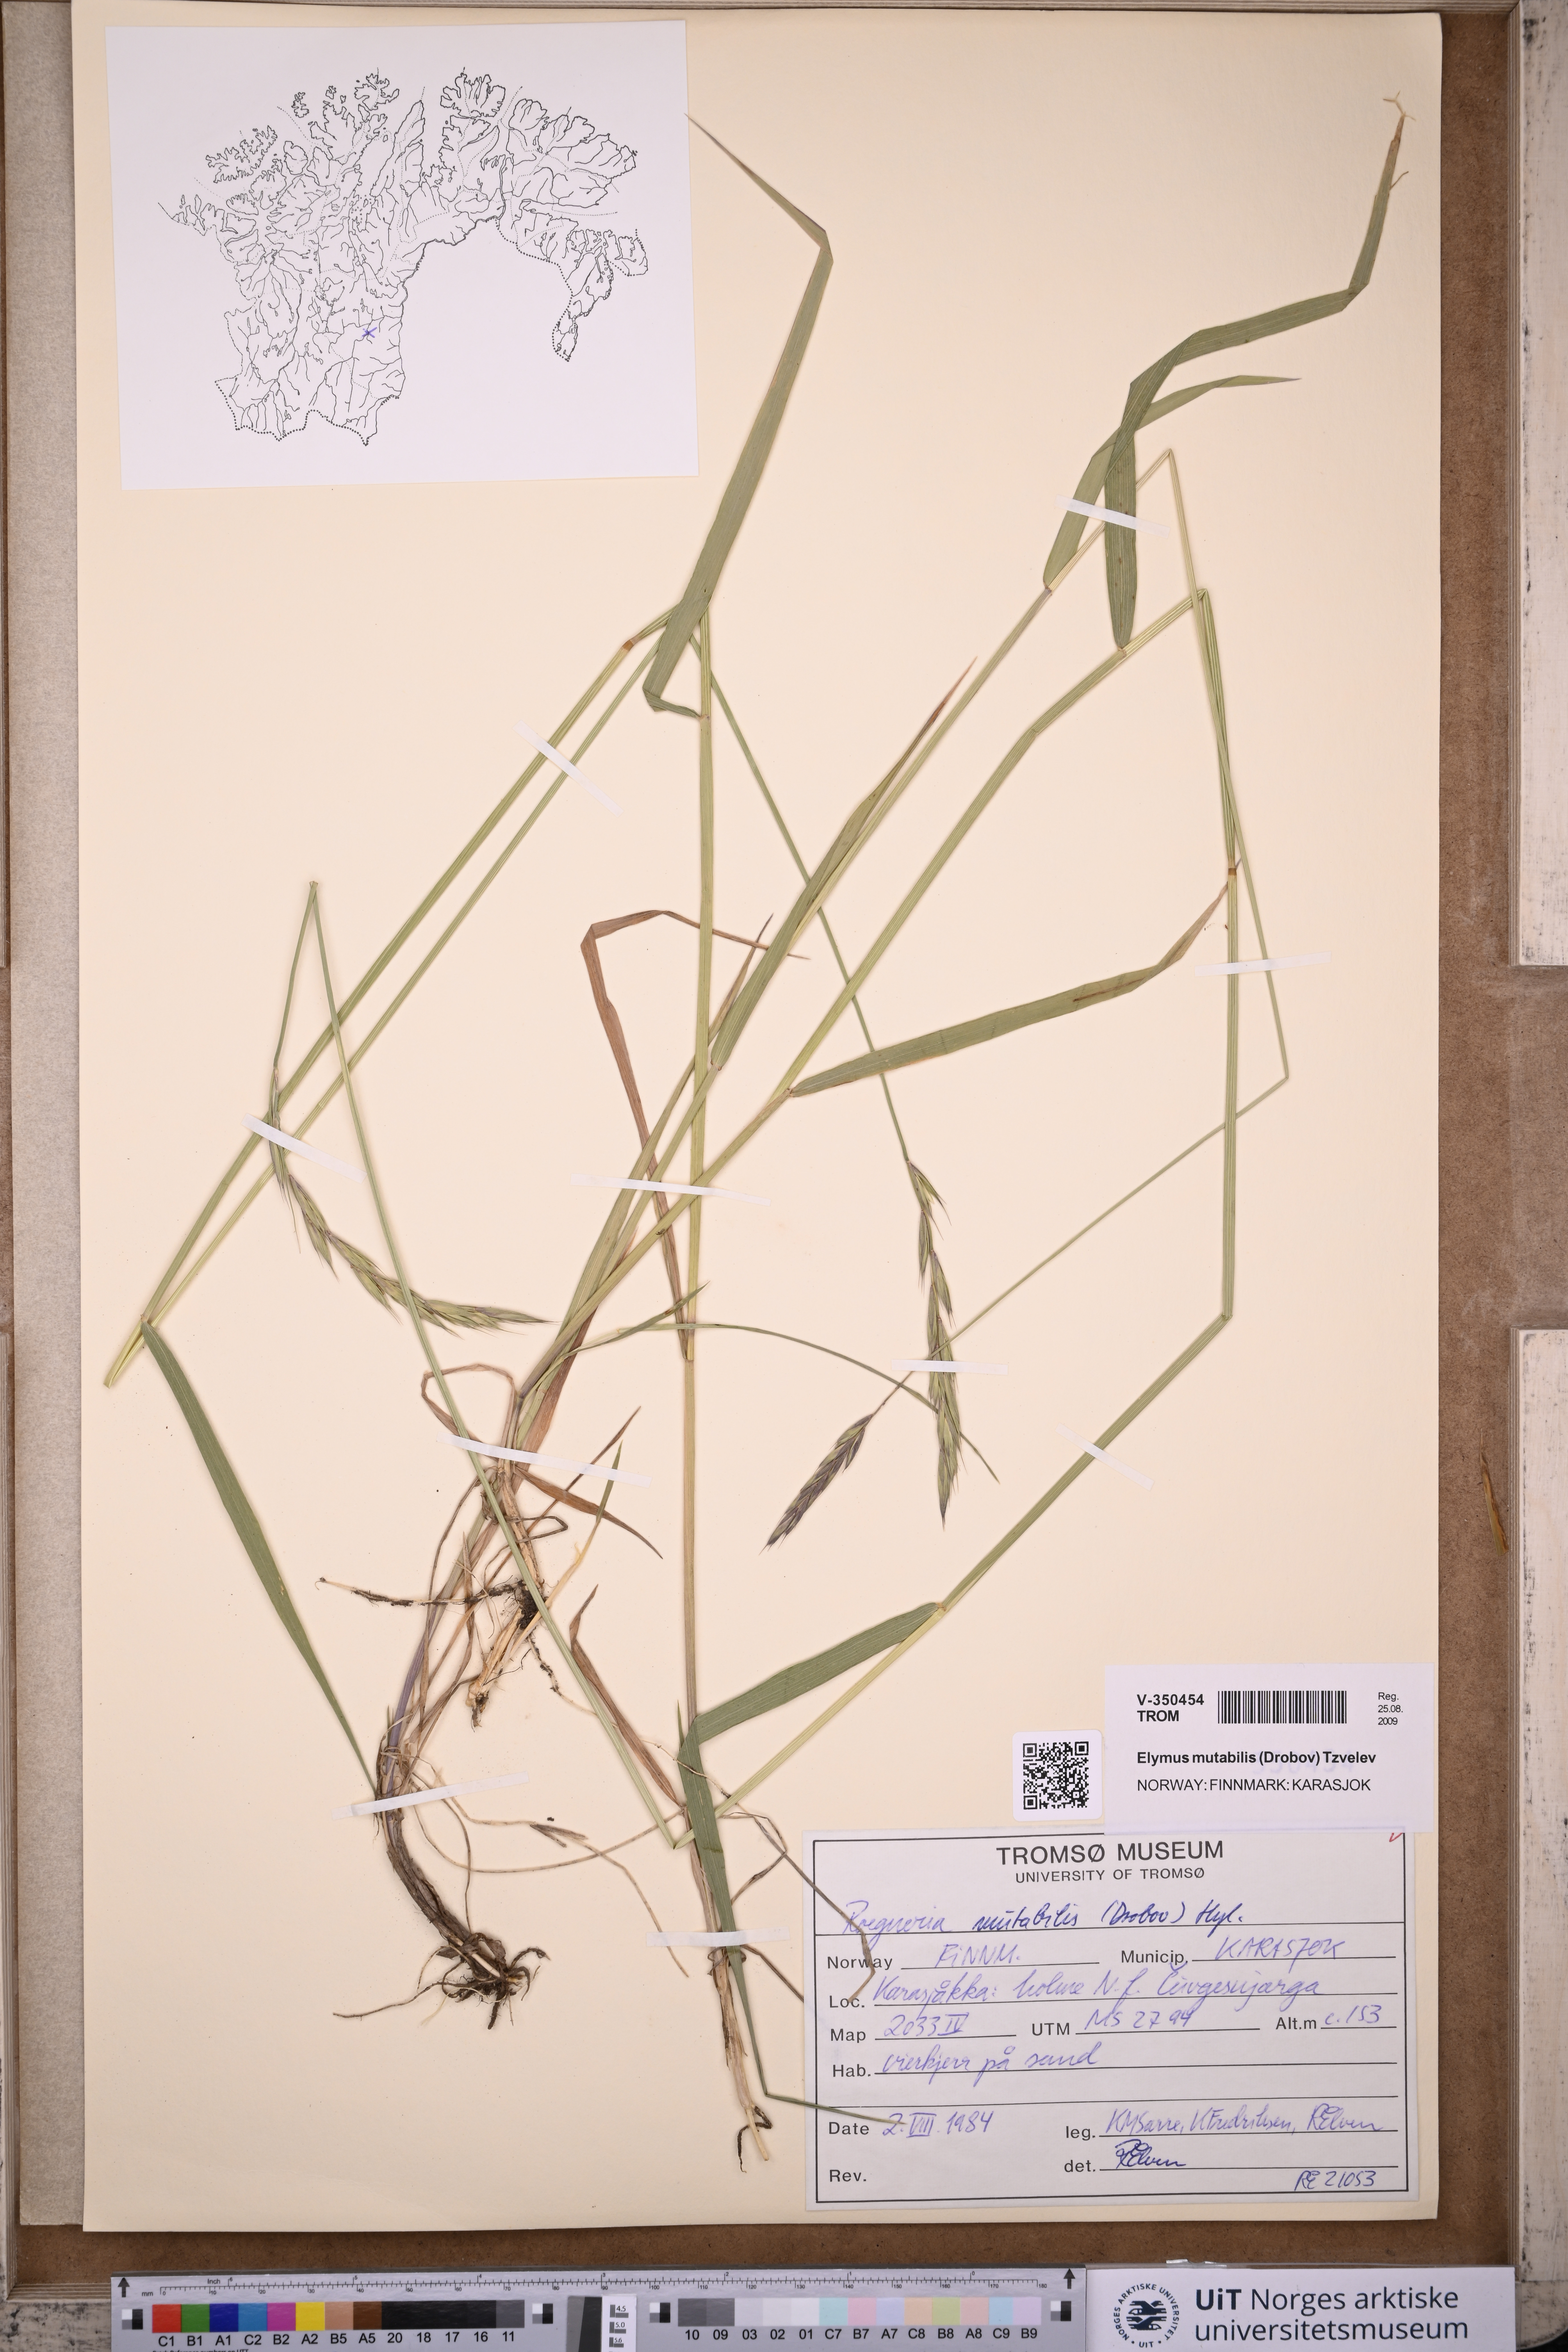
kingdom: Plantae
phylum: Tracheophyta
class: Liliopsida
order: Poales
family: Poaceae
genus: Elymus
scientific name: Elymus mutabilis
